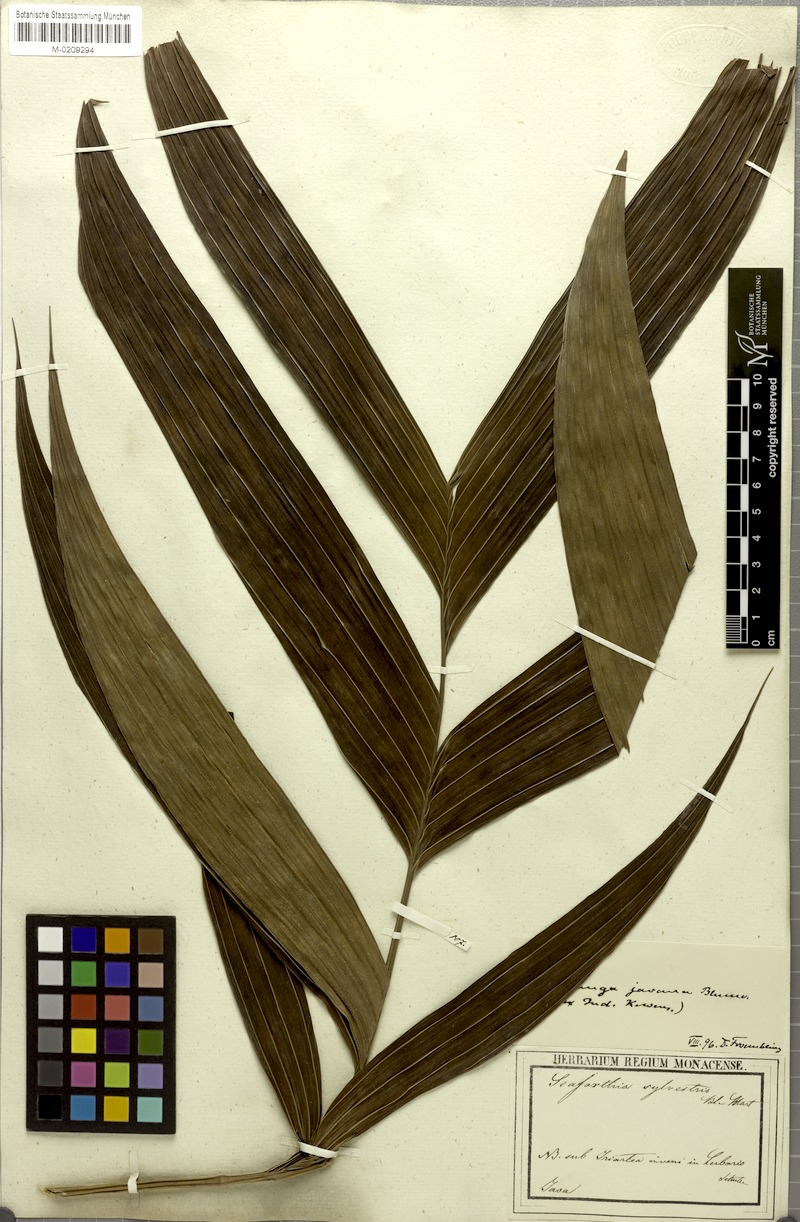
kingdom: Plantae
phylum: Tracheophyta
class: Liliopsida
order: Arecales
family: Arecaceae
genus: Pinanga
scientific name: Pinanga javana
